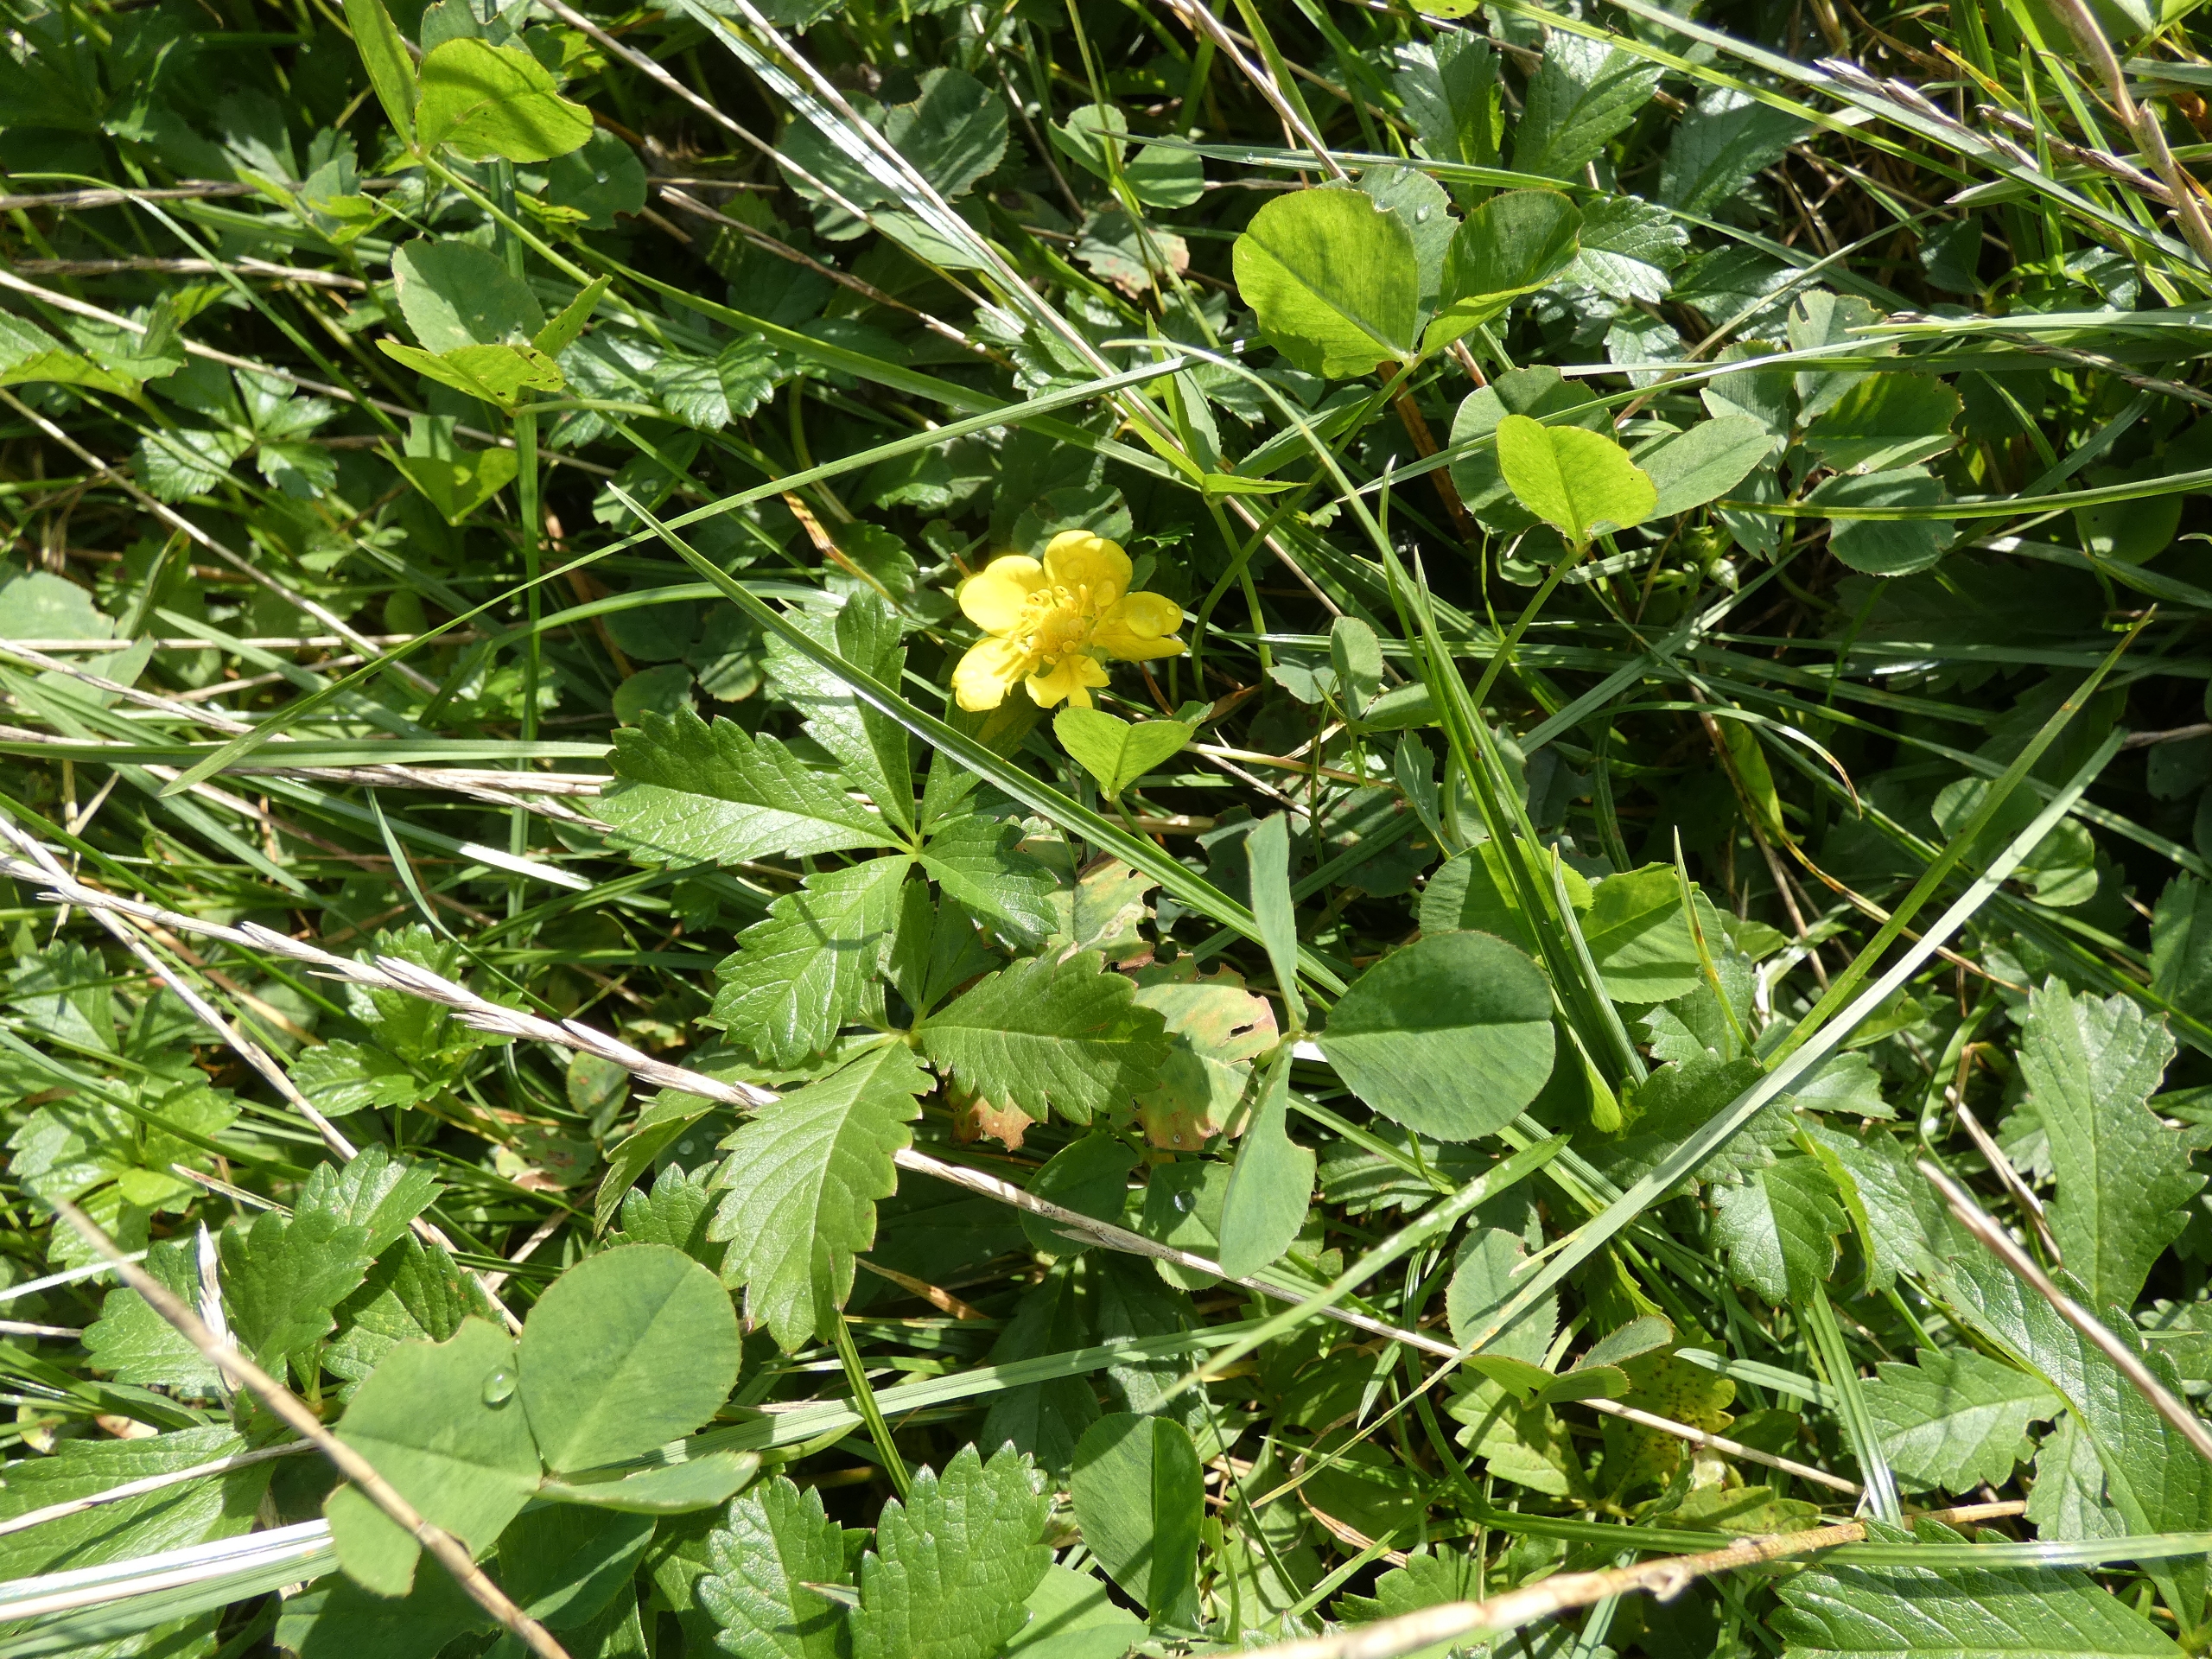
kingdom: Plantae
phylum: Tracheophyta
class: Magnoliopsida
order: Rosales
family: Rosaceae
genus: Potentilla
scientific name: Potentilla reptans
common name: Krybende potentil
